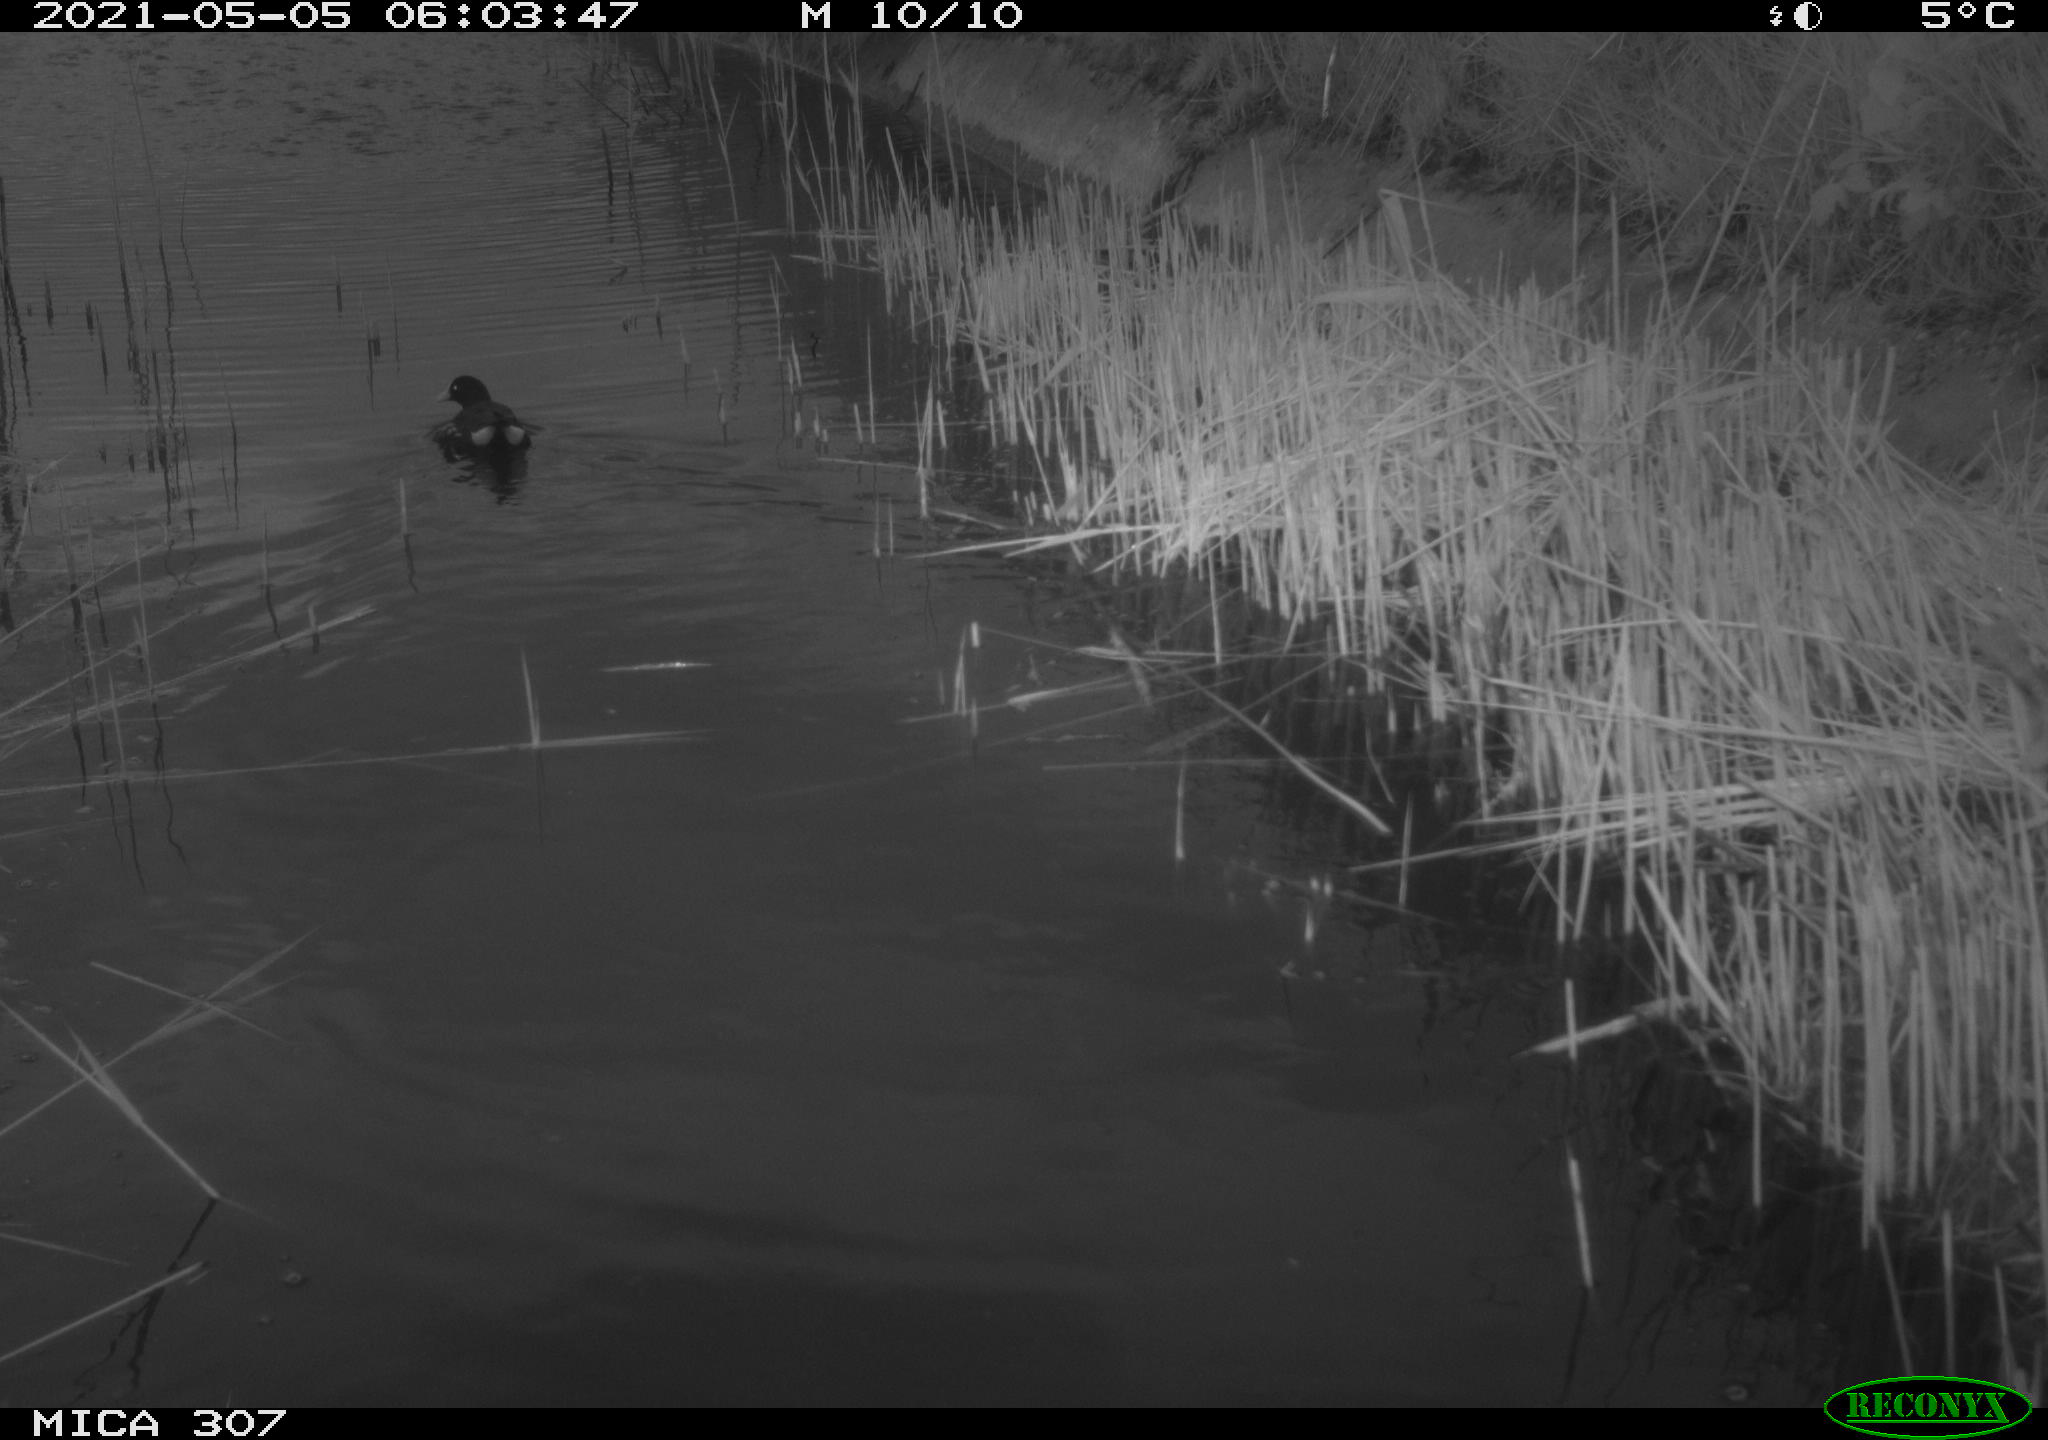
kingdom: Animalia
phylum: Chordata
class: Aves
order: Gruiformes
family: Rallidae
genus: Gallinula
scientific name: Gallinula chloropus
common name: Common moorhen
